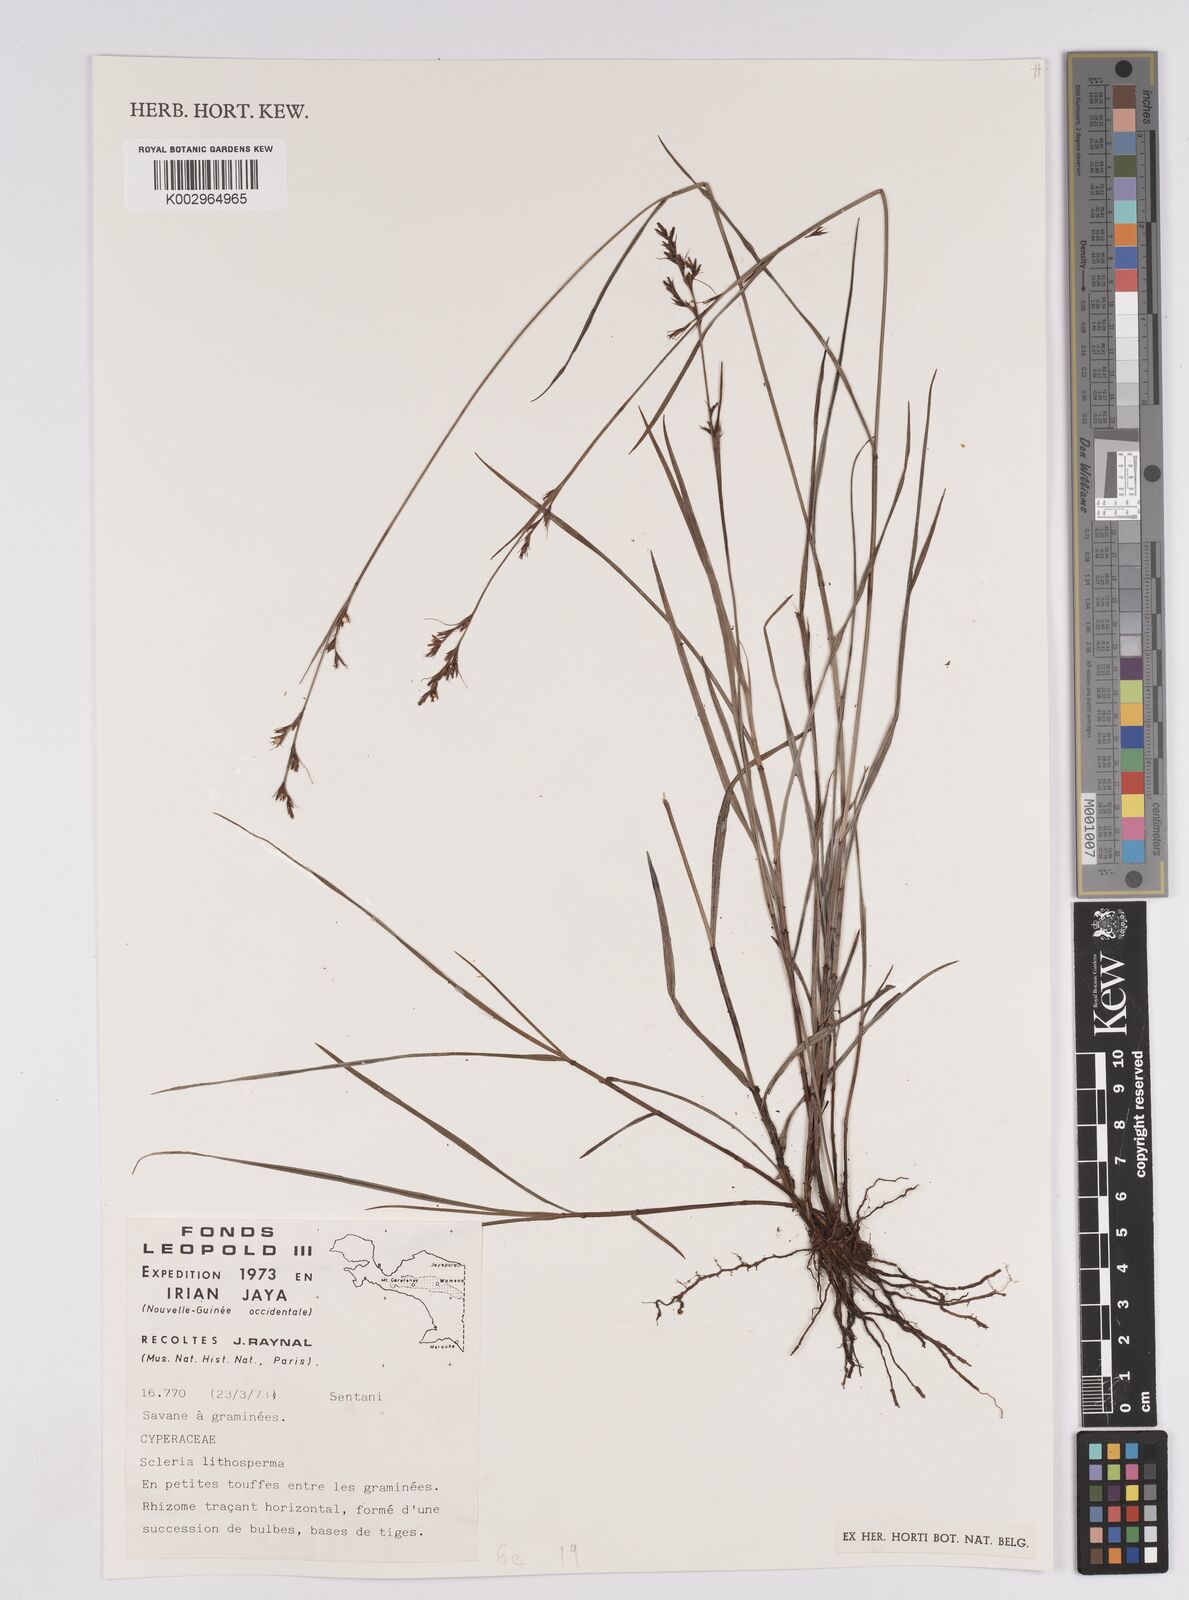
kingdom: Plantae
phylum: Tracheophyta
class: Liliopsida
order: Poales
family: Cyperaceae
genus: Scleria
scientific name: Scleria lithosperma
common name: Florida keys nut-rush
